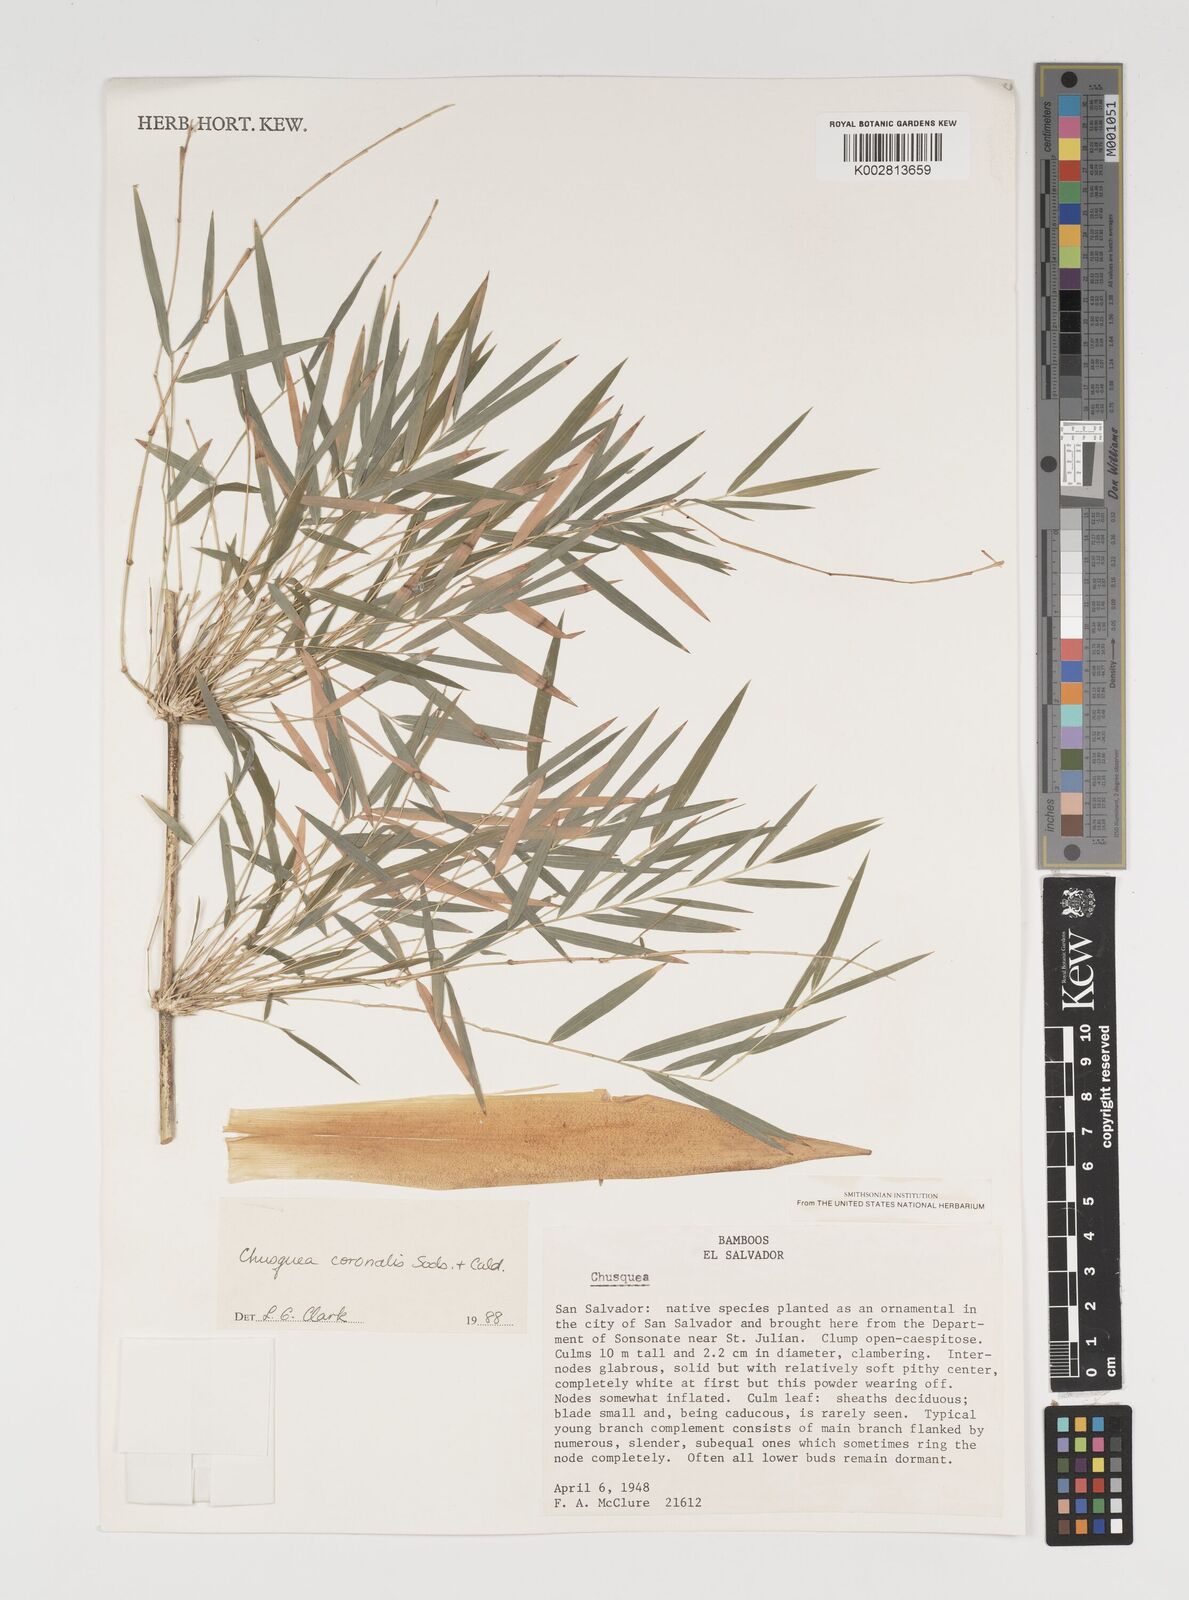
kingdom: Plantae
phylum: Tracheophyta
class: Liliopsida
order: Poales
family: Poaceae
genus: Chusquea
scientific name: Chusquea coronalis
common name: Machris bamboo
